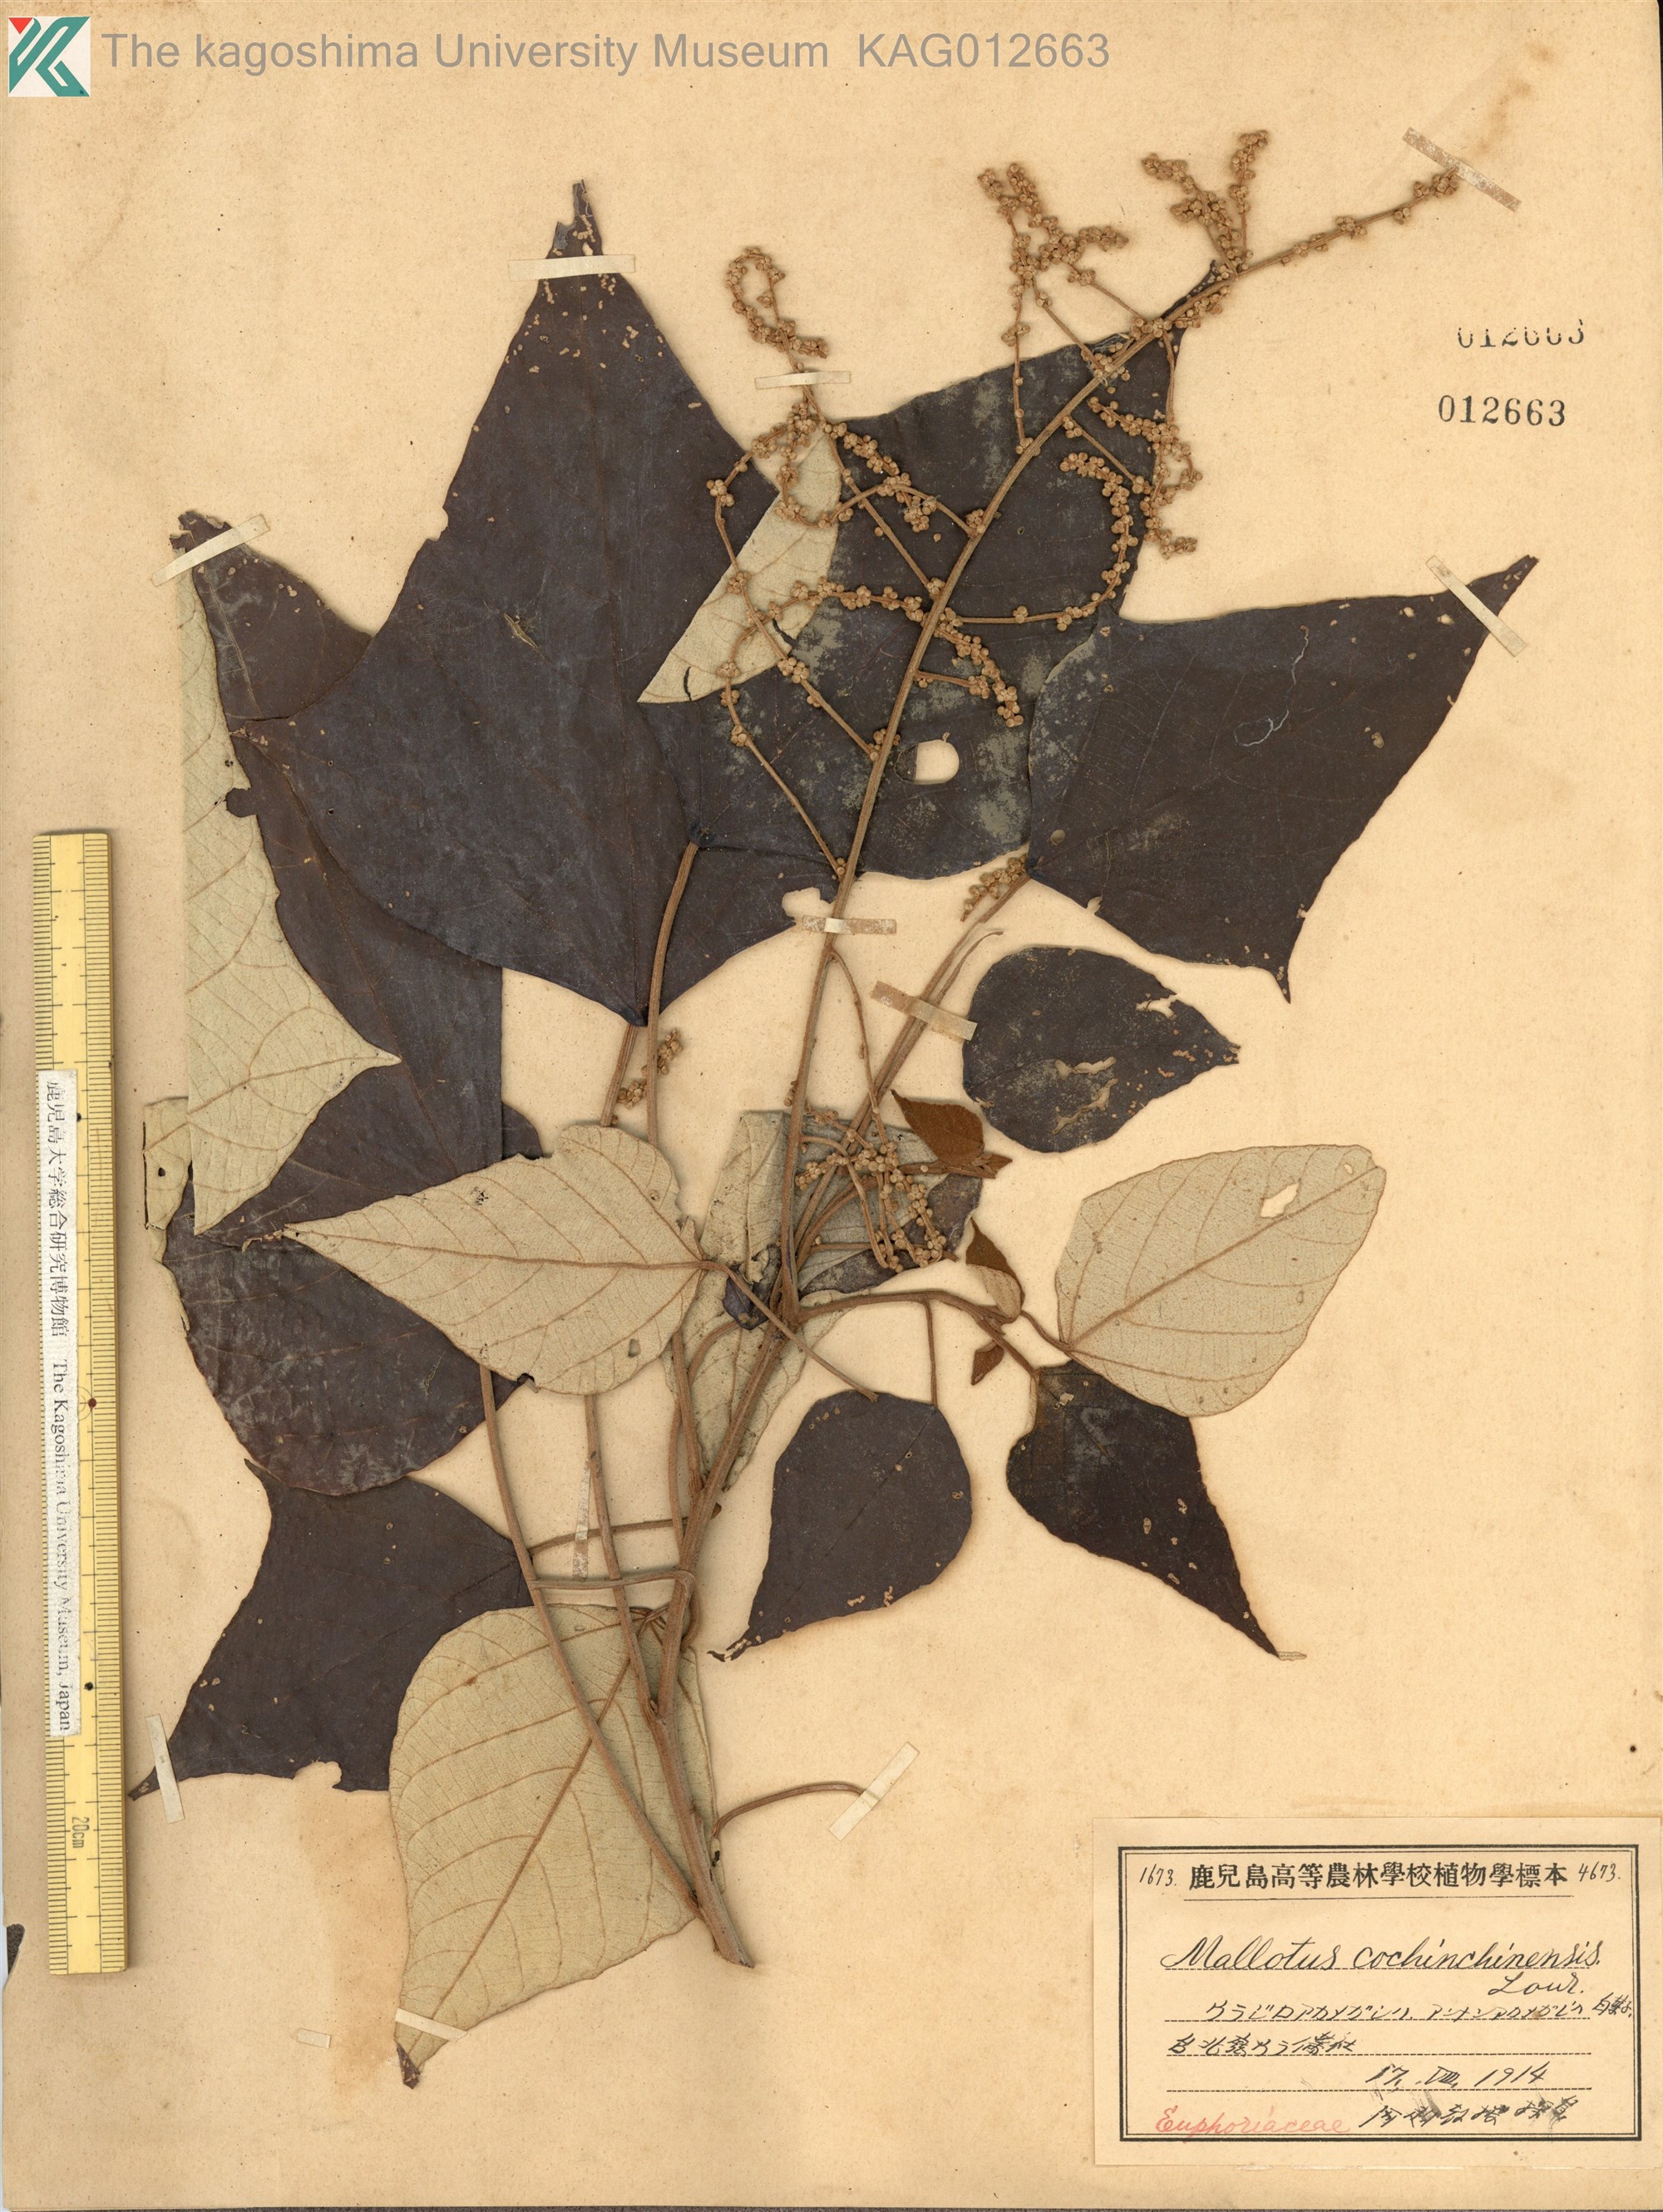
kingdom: Plantae
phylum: Tracheophyta
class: Magnoliopsida
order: Malpighiales
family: Euphorbiaceae
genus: Mallotus
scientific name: Mallotus paniculatus
